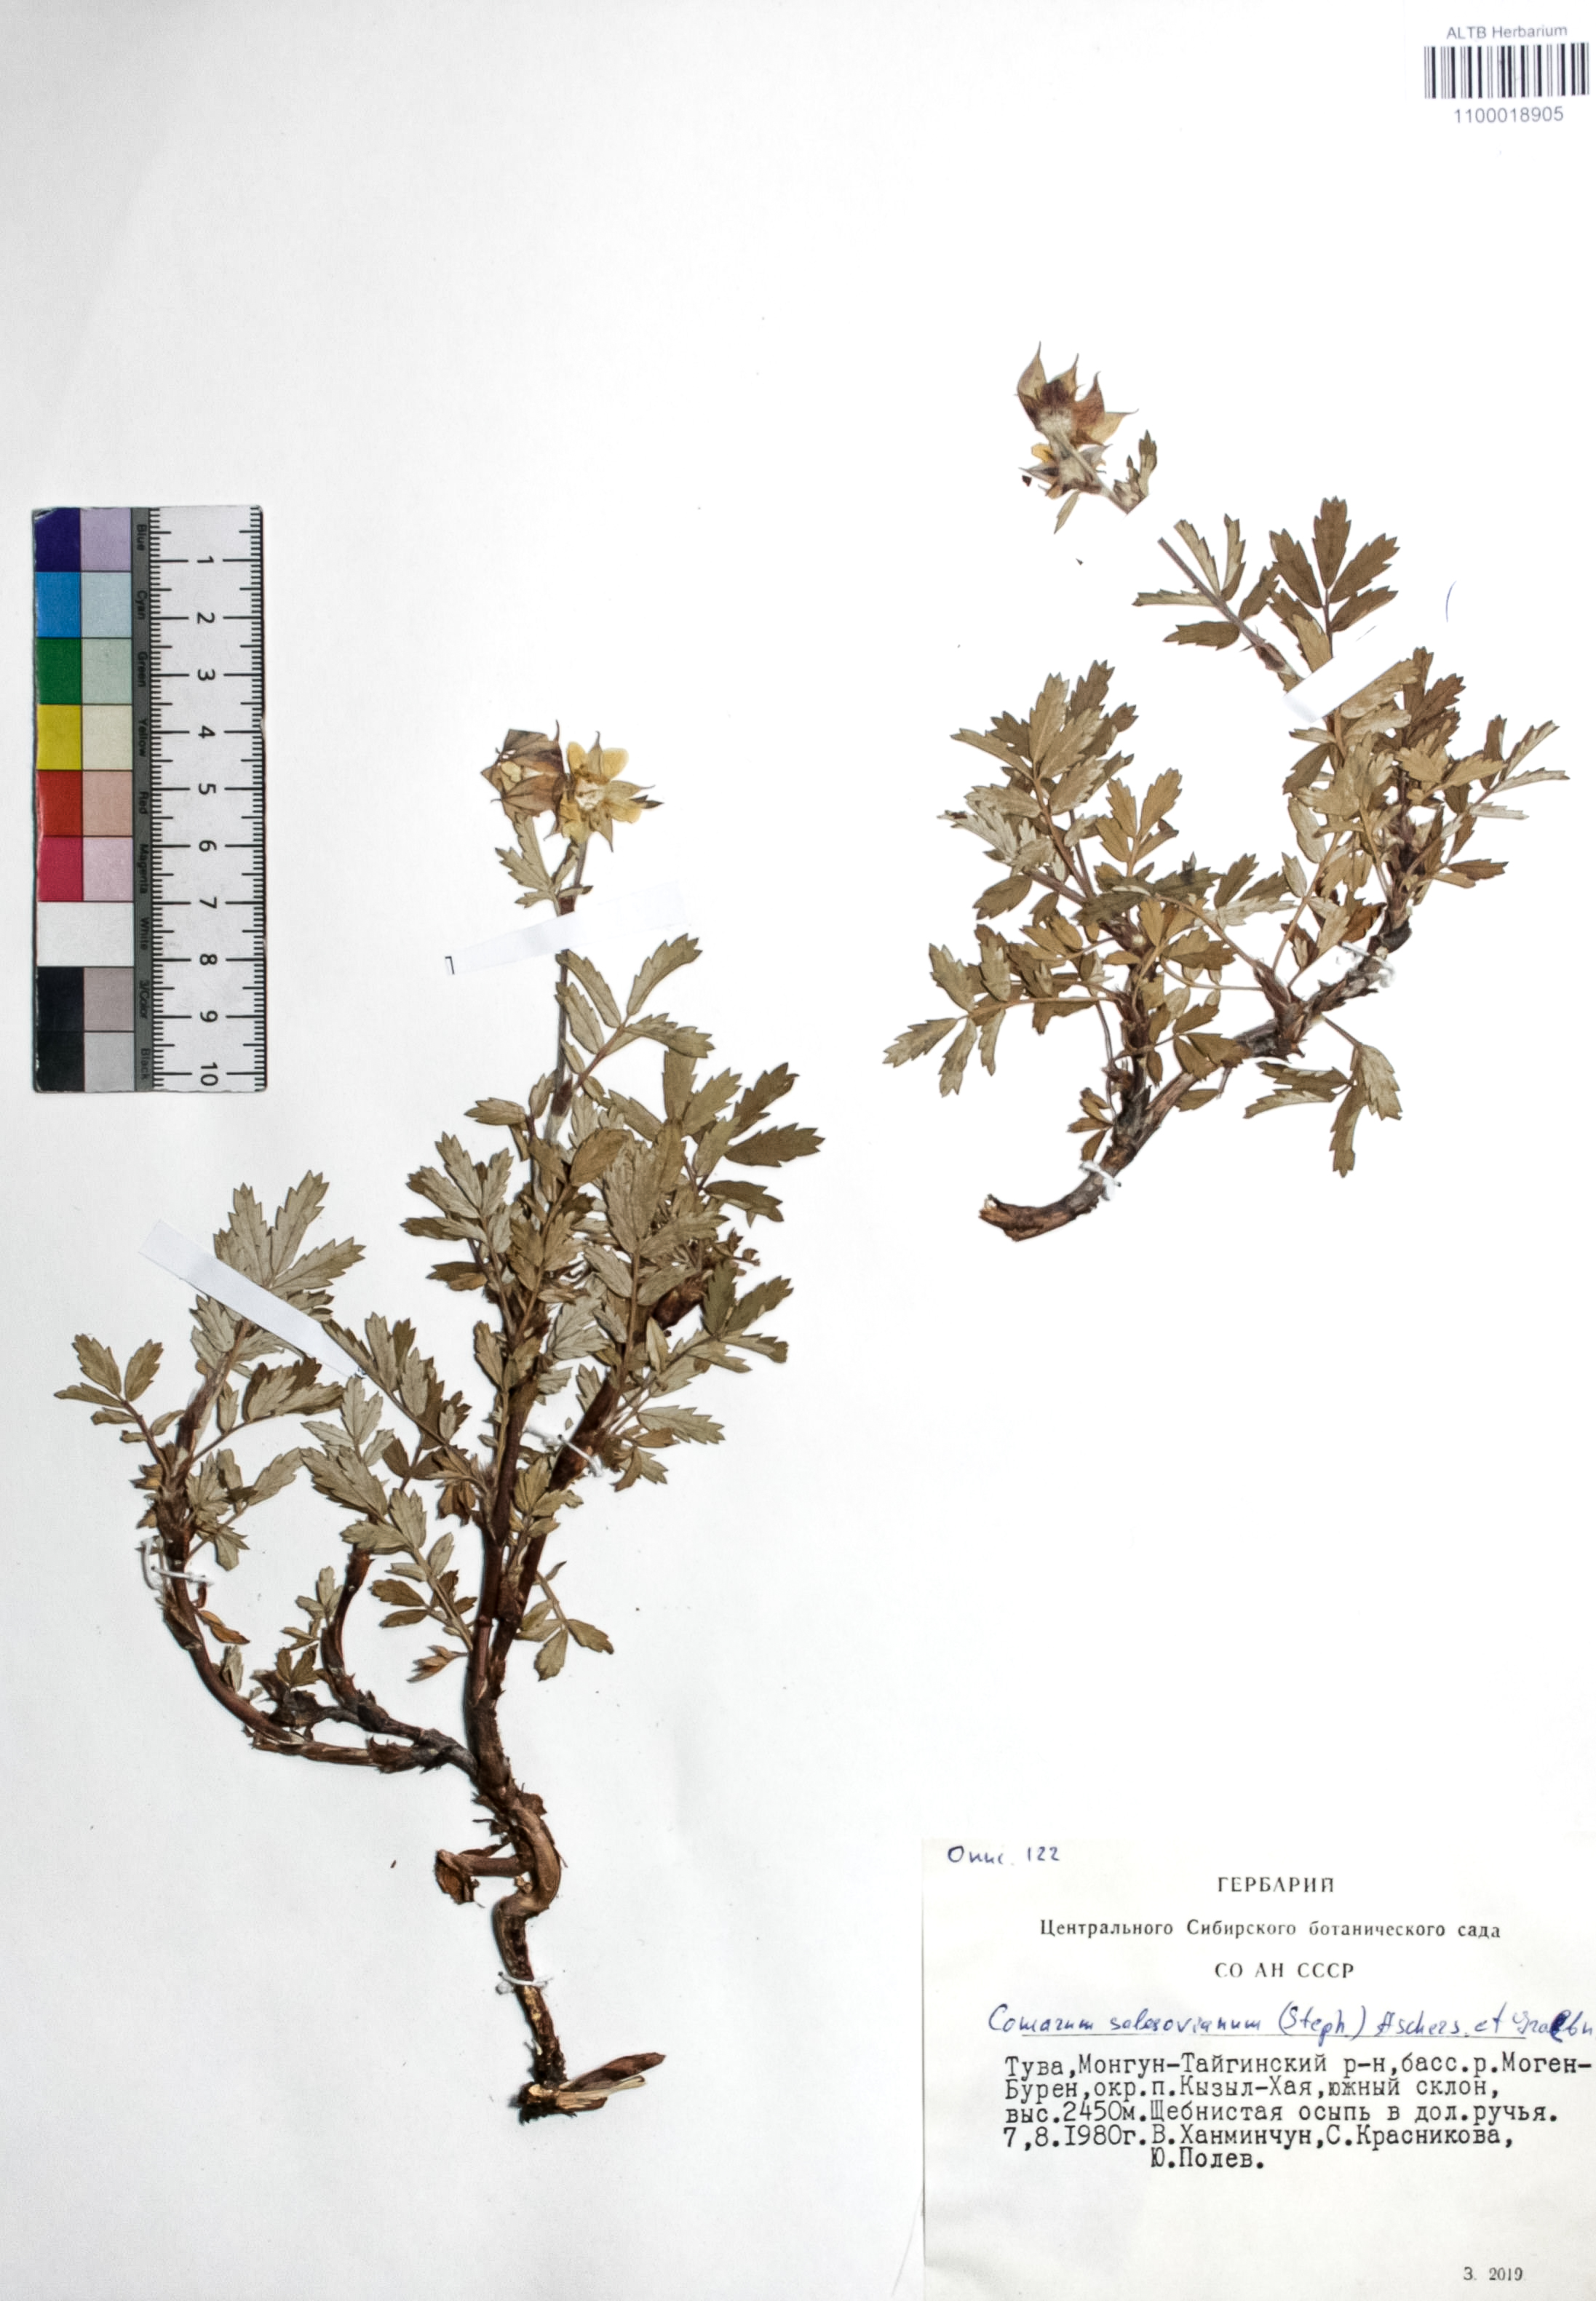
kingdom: Plantae
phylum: Tracheophyta
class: Magnoliopsida
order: Rosales
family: Rosaceae
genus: Farinopsis
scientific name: Farinopsis salesoviana
